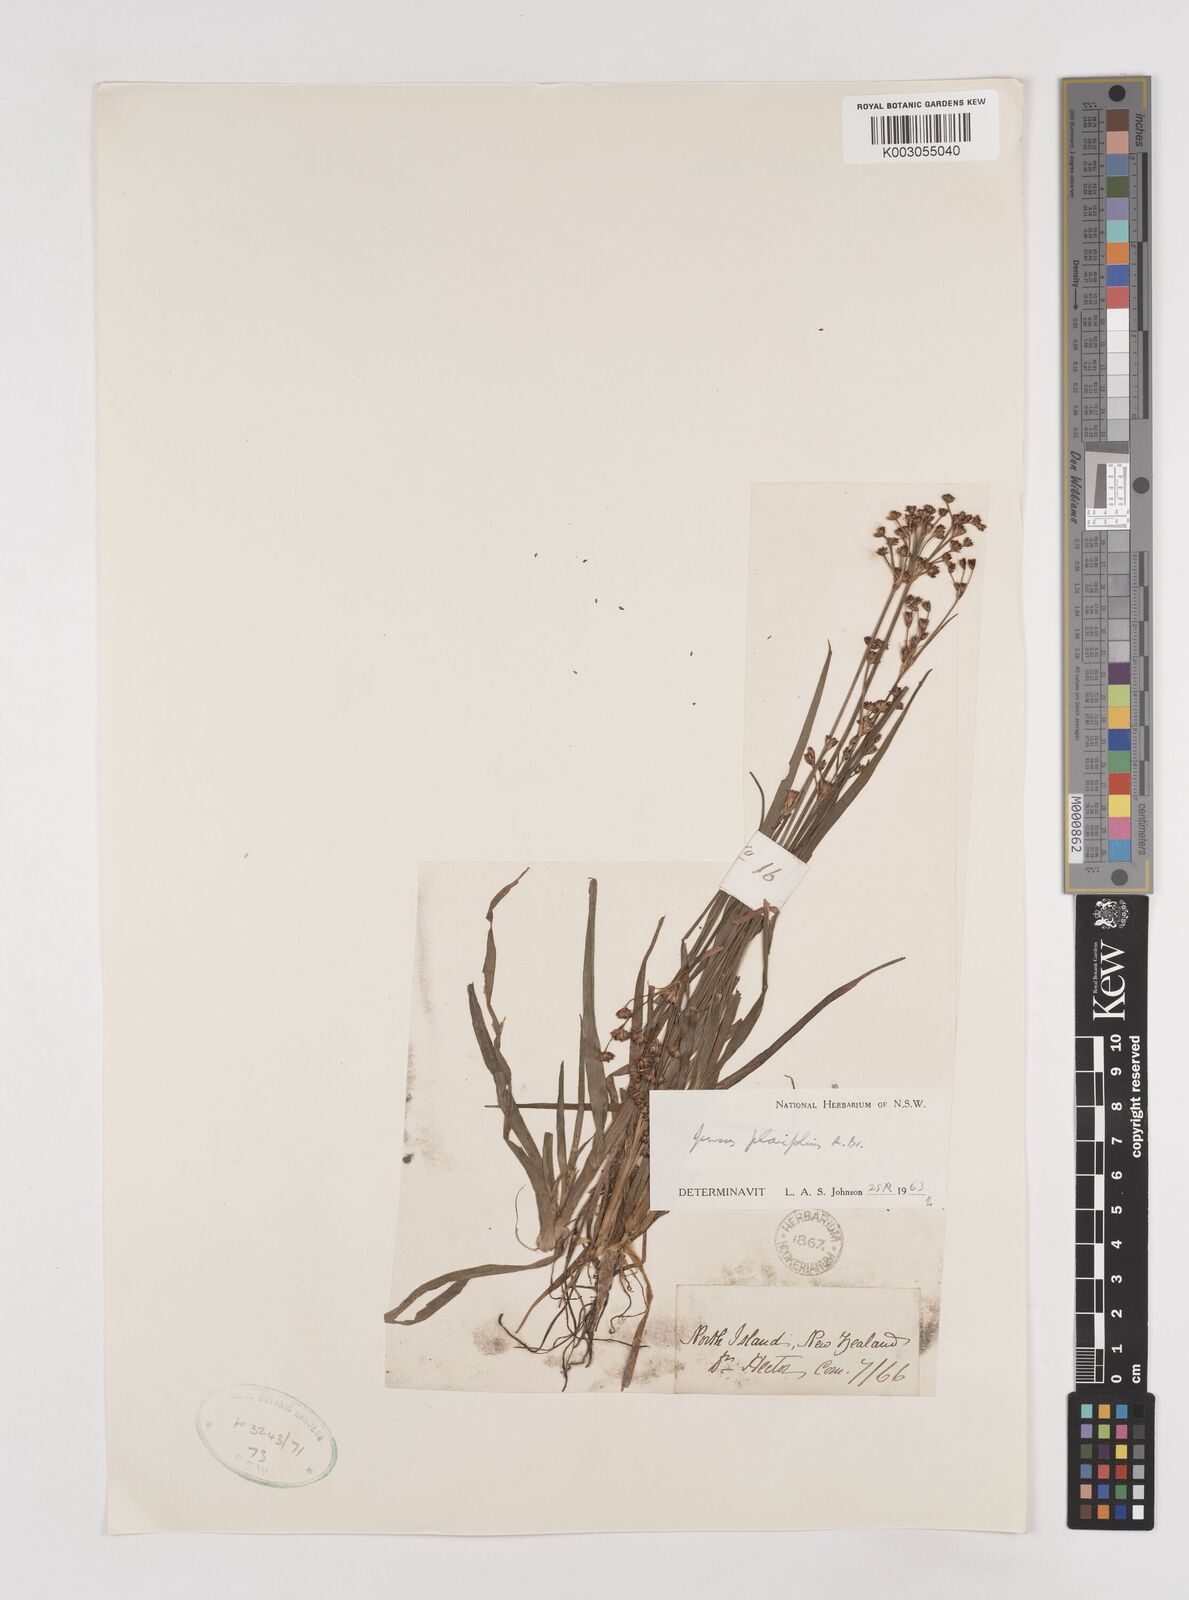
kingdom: Plantae
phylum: Tracheophyta
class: Liliopsida
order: Poales
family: Juncaceae
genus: Juncus
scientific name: Juncus planifolius
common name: Broadleaf rush
